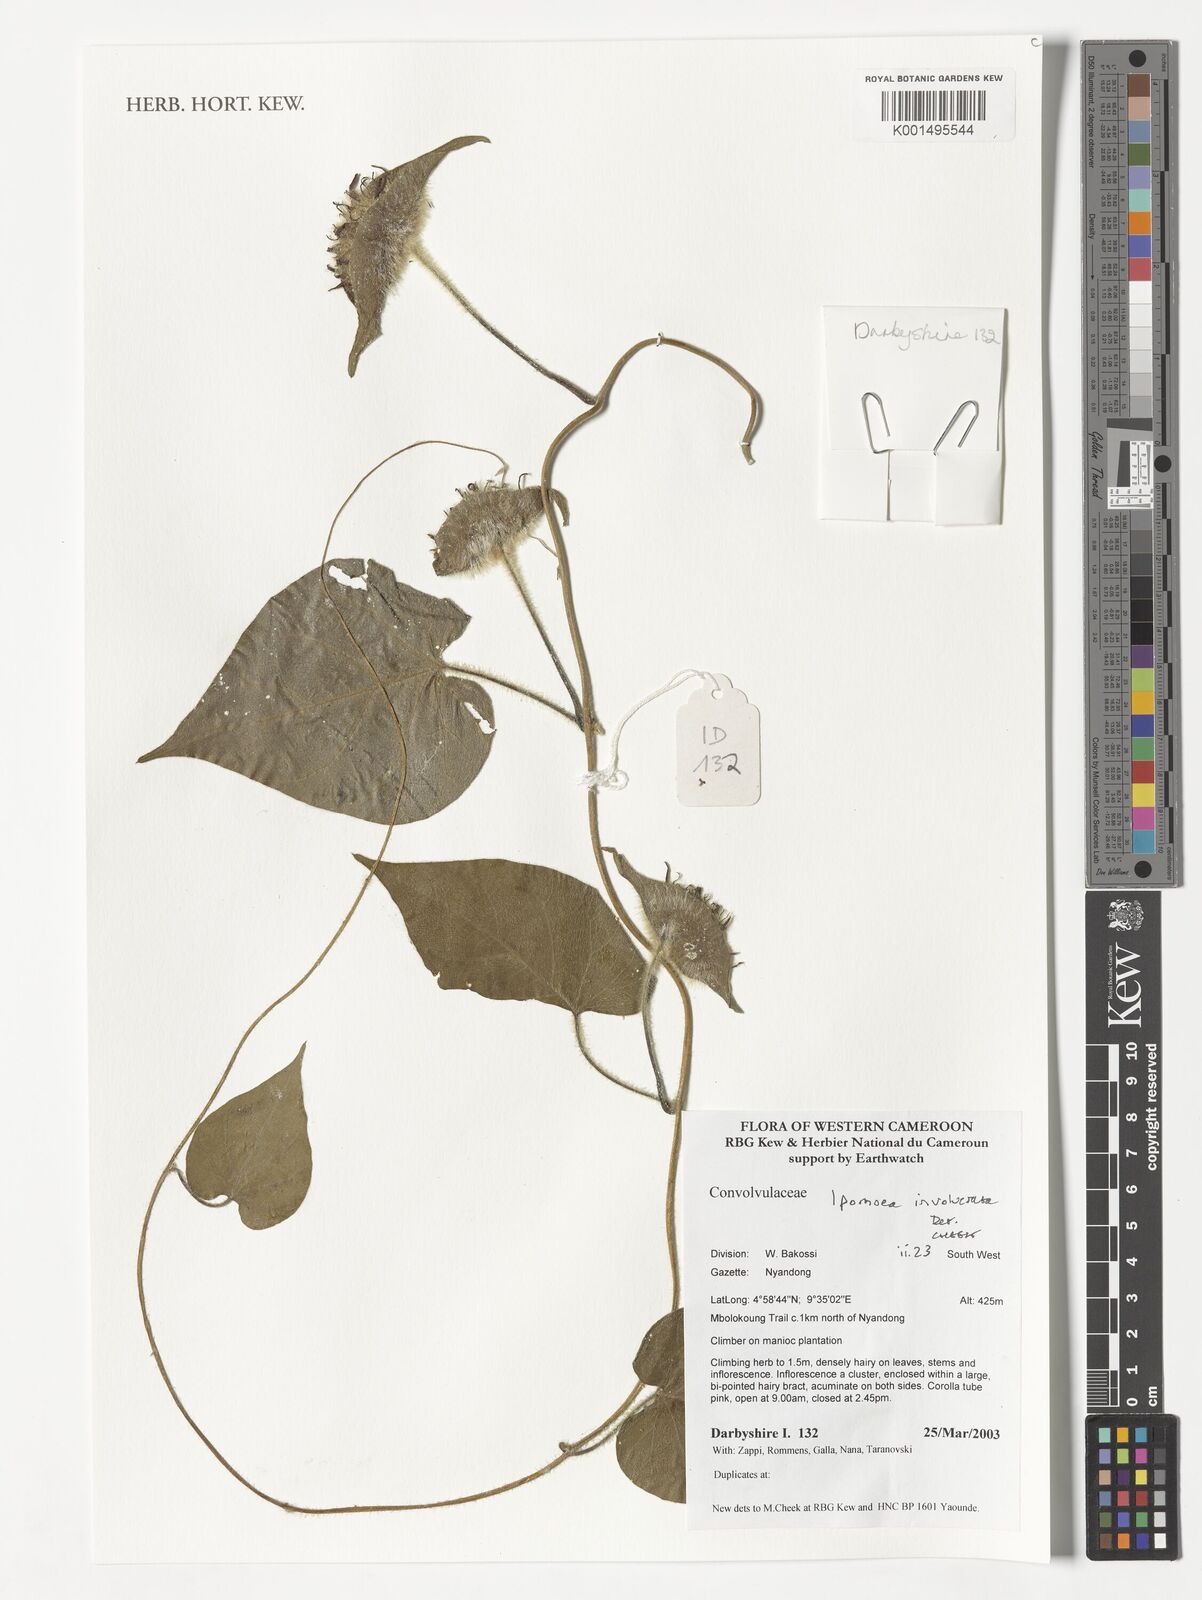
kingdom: Plantae
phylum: Tracheophyta
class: Magnoliopsida
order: Solanales
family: Convolvulaceae
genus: Ipomoea
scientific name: Ipomoea involucrata
